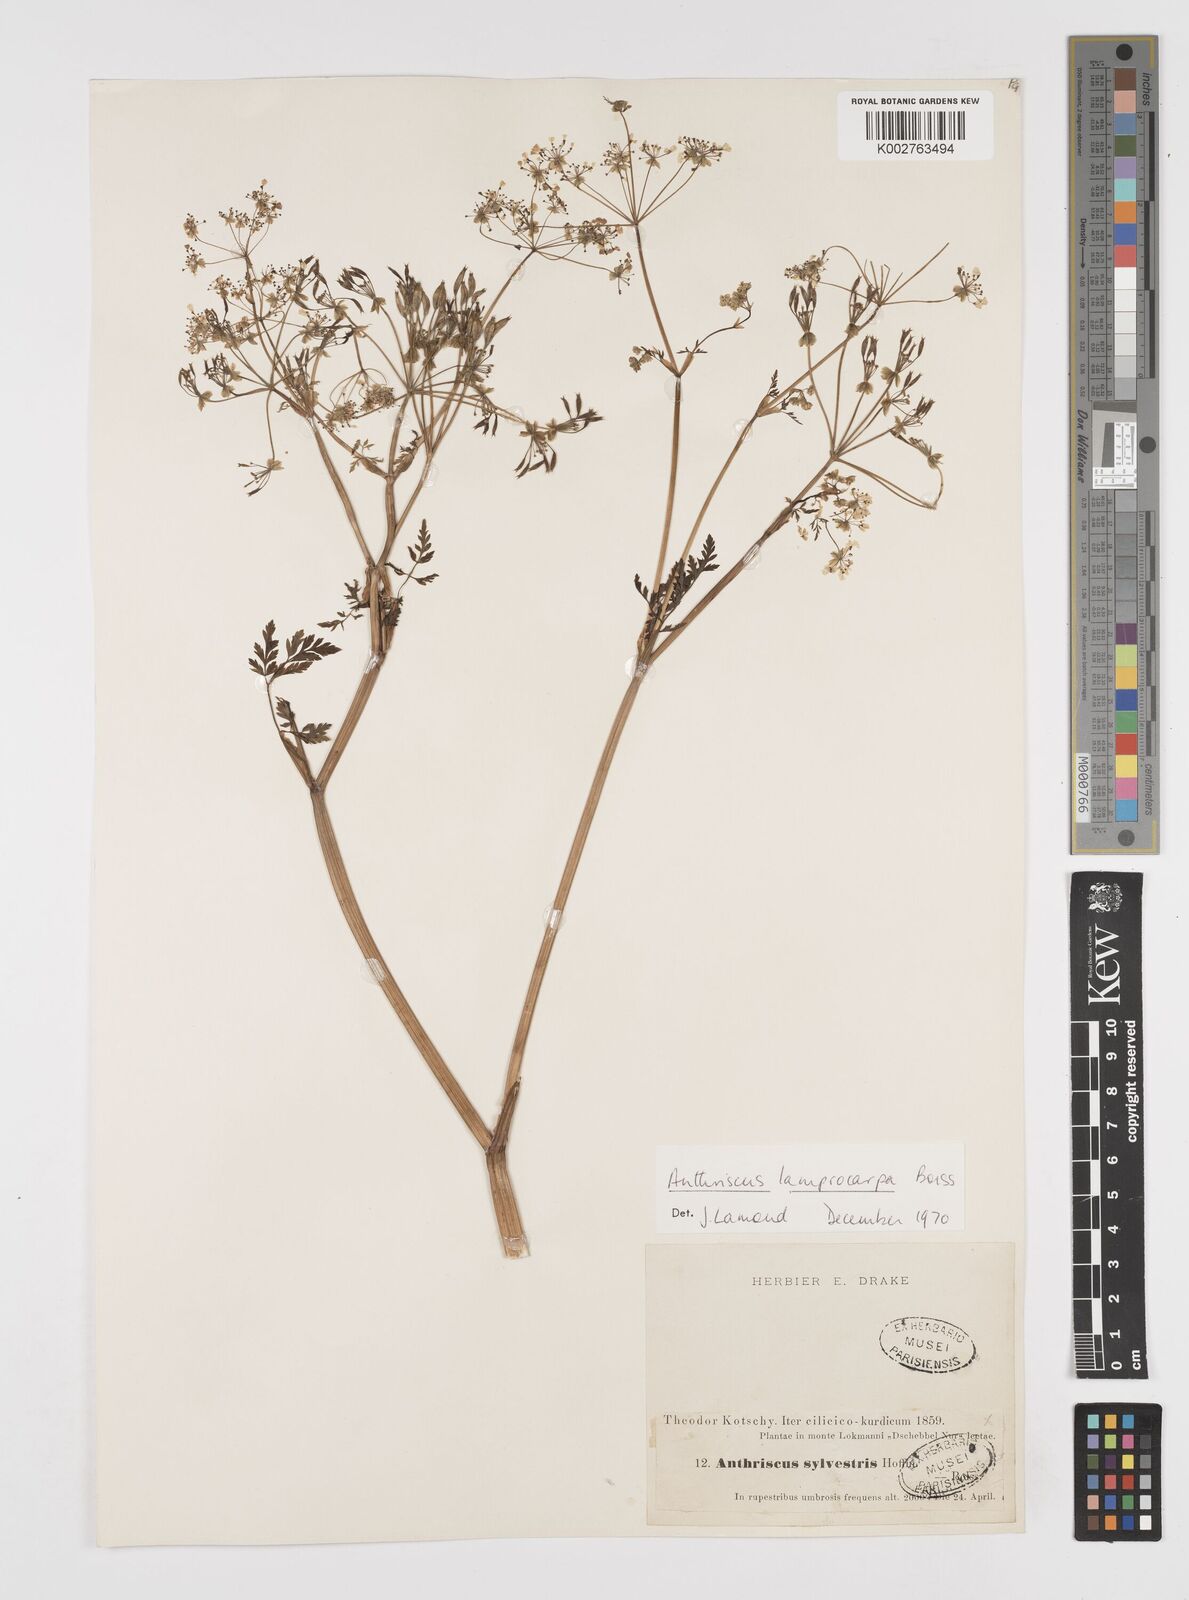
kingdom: Plantae
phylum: Tracheophyta
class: Magnoliopsida
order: Apiales
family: Apiaceae
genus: Anthriscus
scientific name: Anthriscus lamprocarpa
